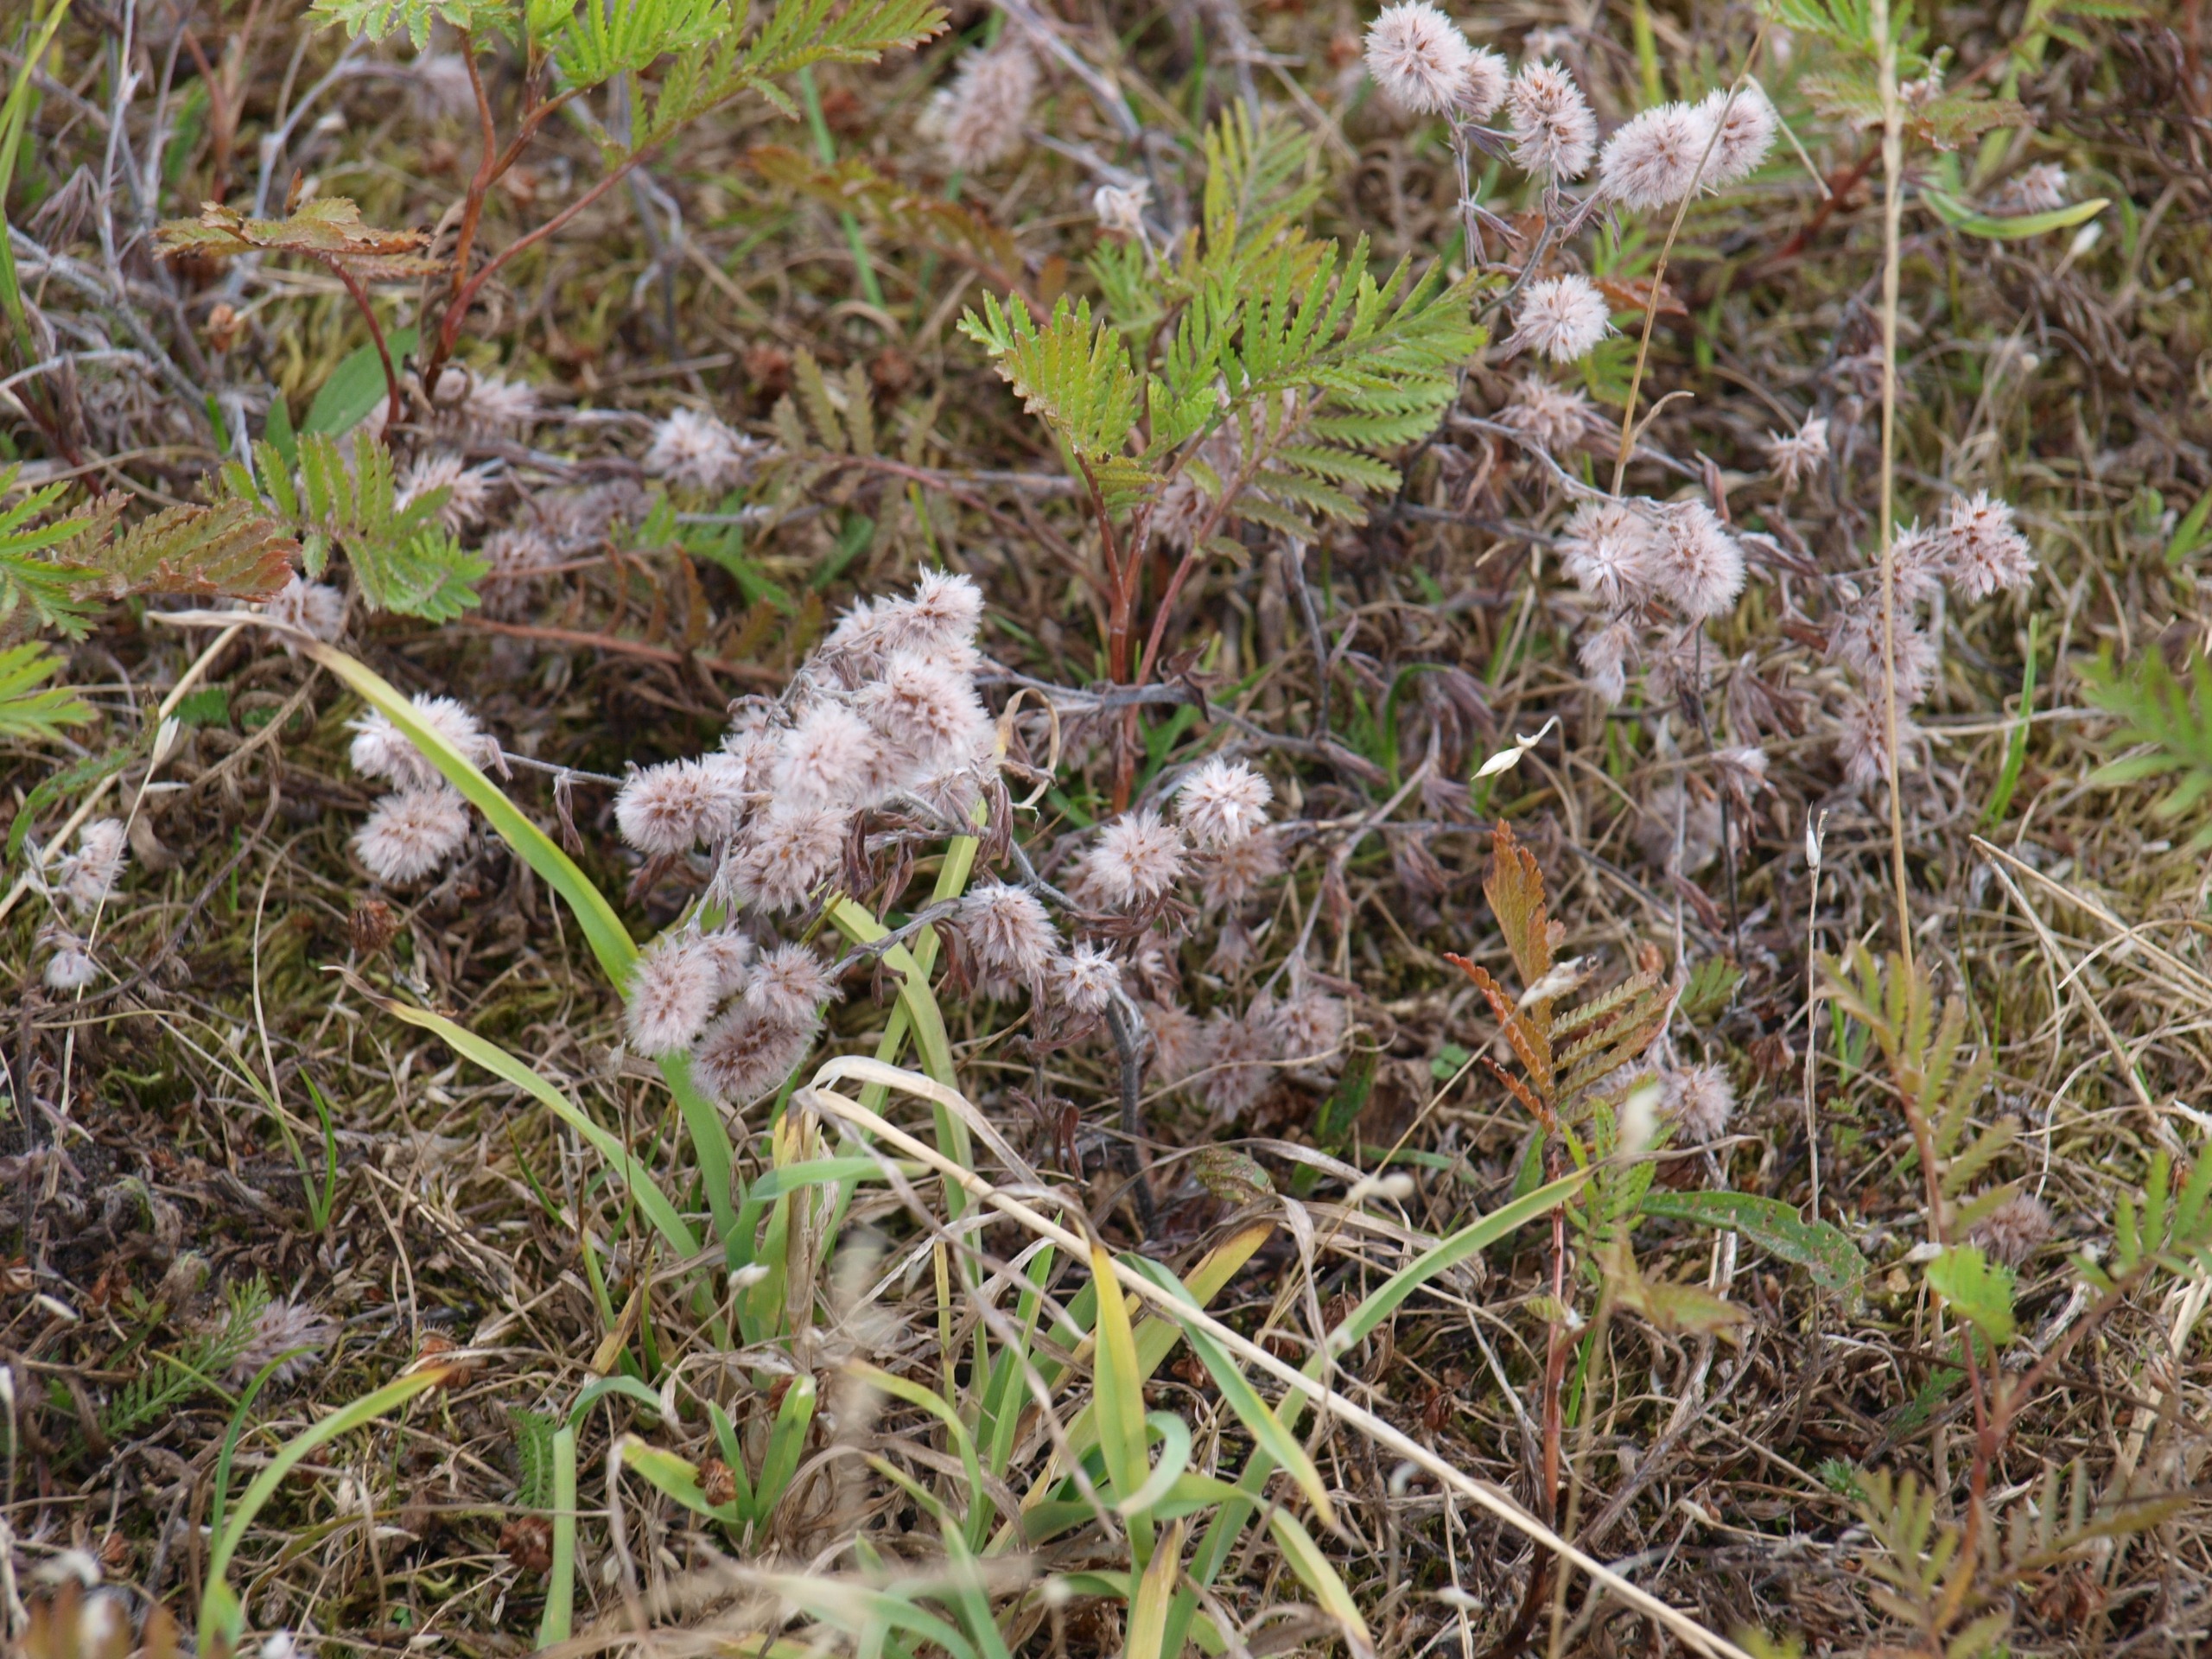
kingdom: Plantae
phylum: Tracheophyta
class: Magnoliopsida
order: Fabales
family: Fabaceae
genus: Trifolium
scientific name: Trifolium arvense
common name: Hare-kløver
